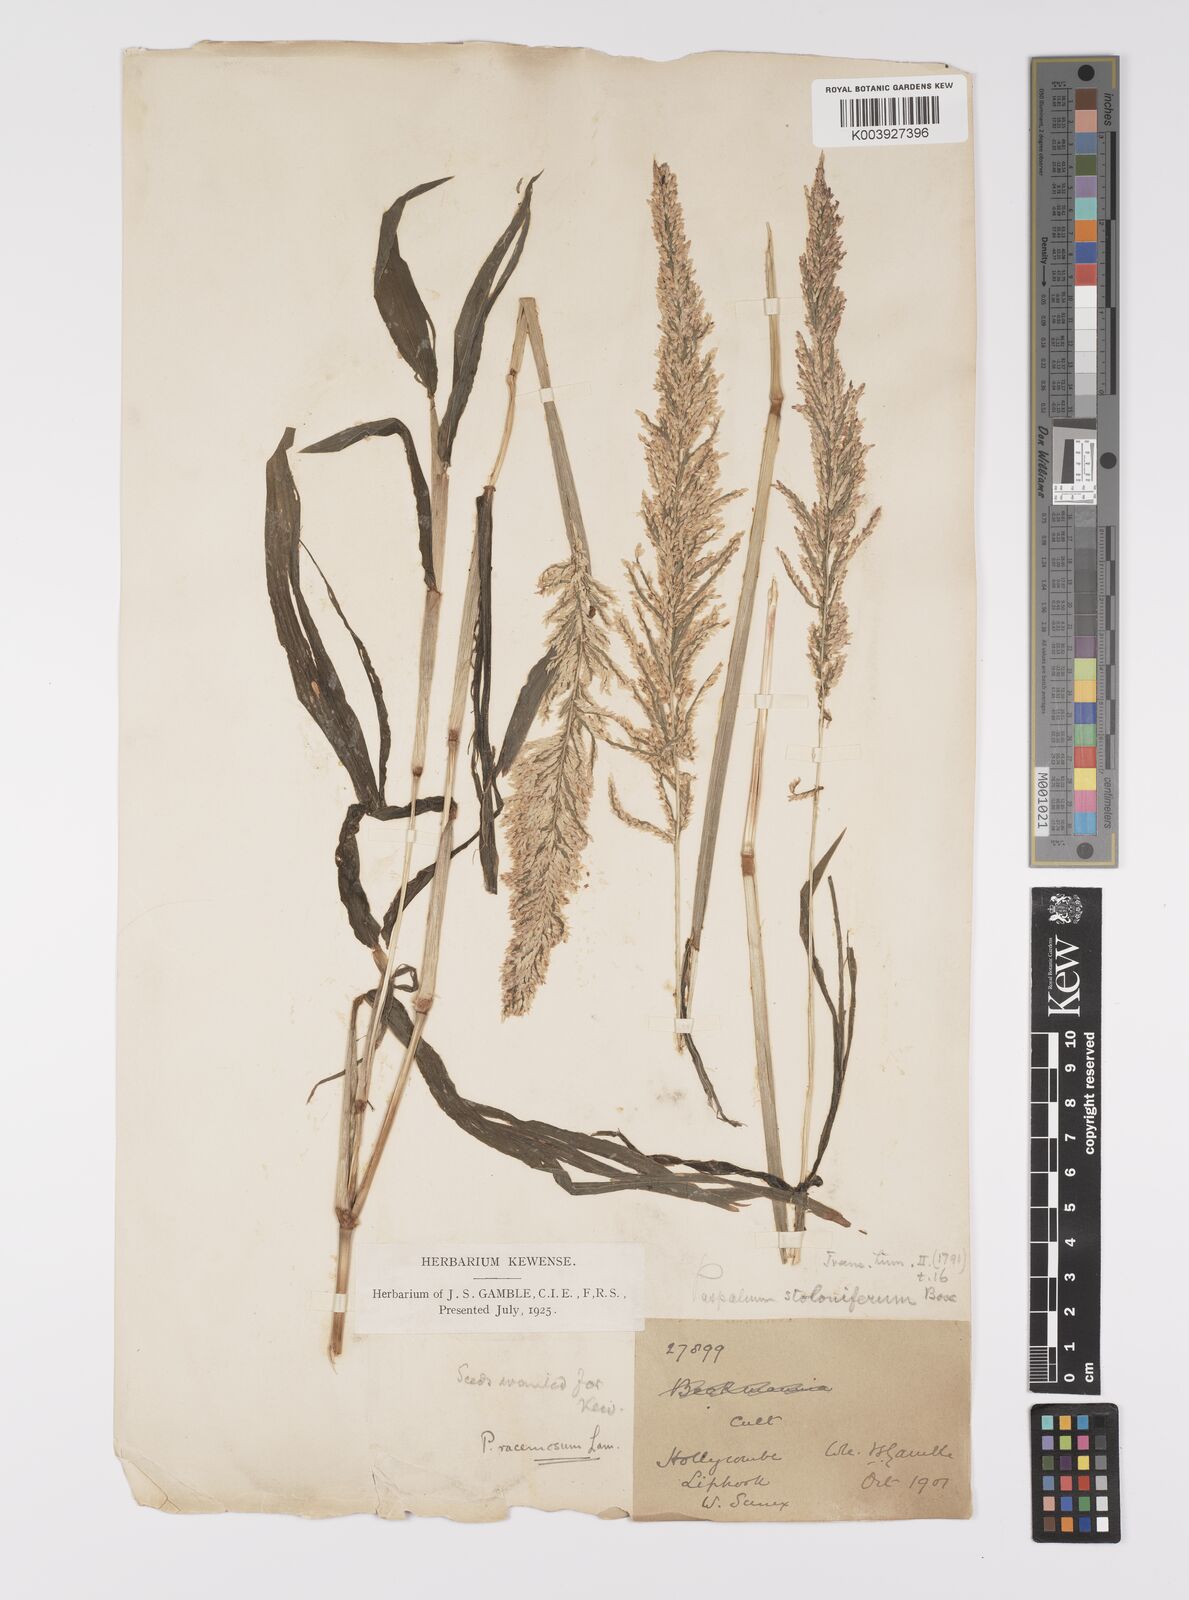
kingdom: Plantae
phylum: Tracheophyta
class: Liliopsida
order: Poales
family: Poaceae
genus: Paspalum
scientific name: Paspalum racemosum
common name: Peruvian paspalum
